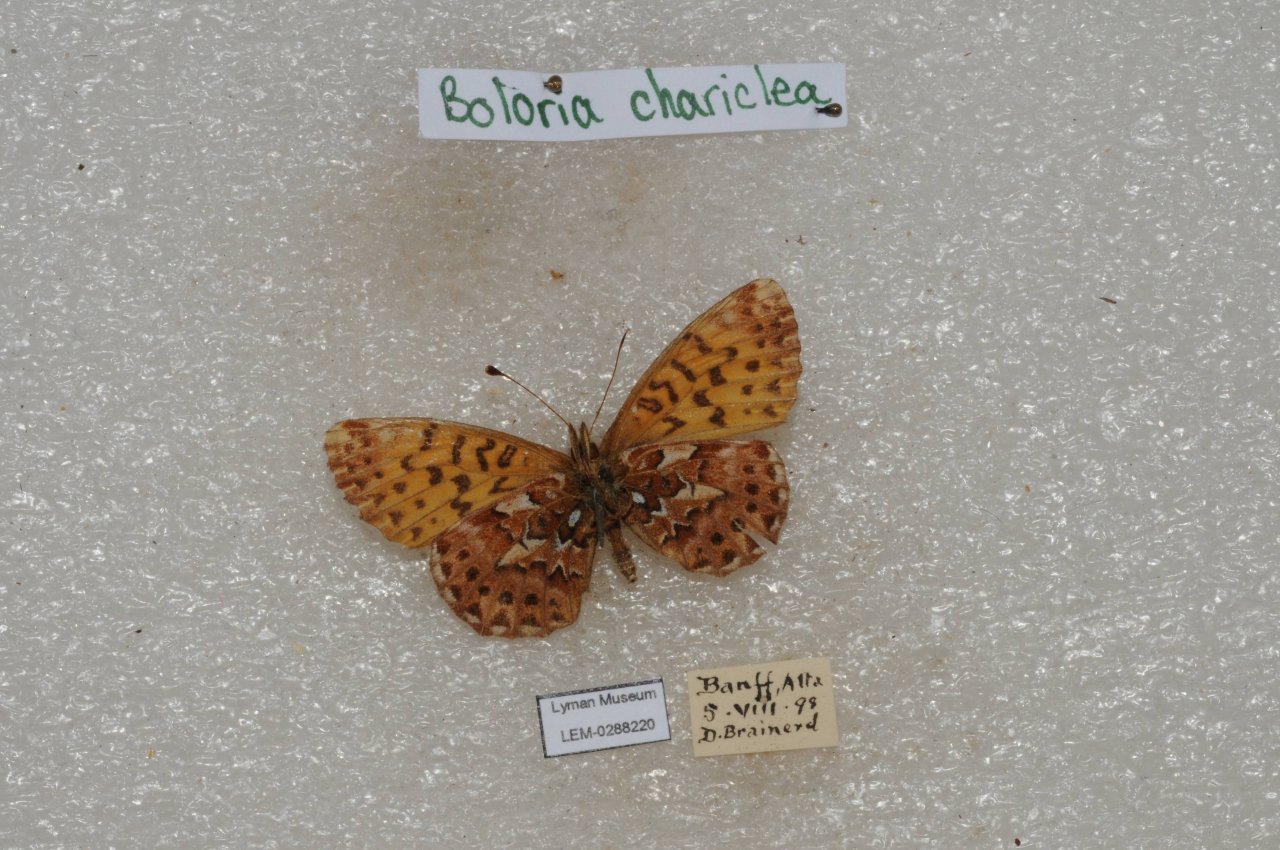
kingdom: Animalia
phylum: Arthropoda
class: Insecta
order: Lepidoptera
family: Nymphalidae
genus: Boloria
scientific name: Boloria chariclea
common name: Arctic Fritillary
